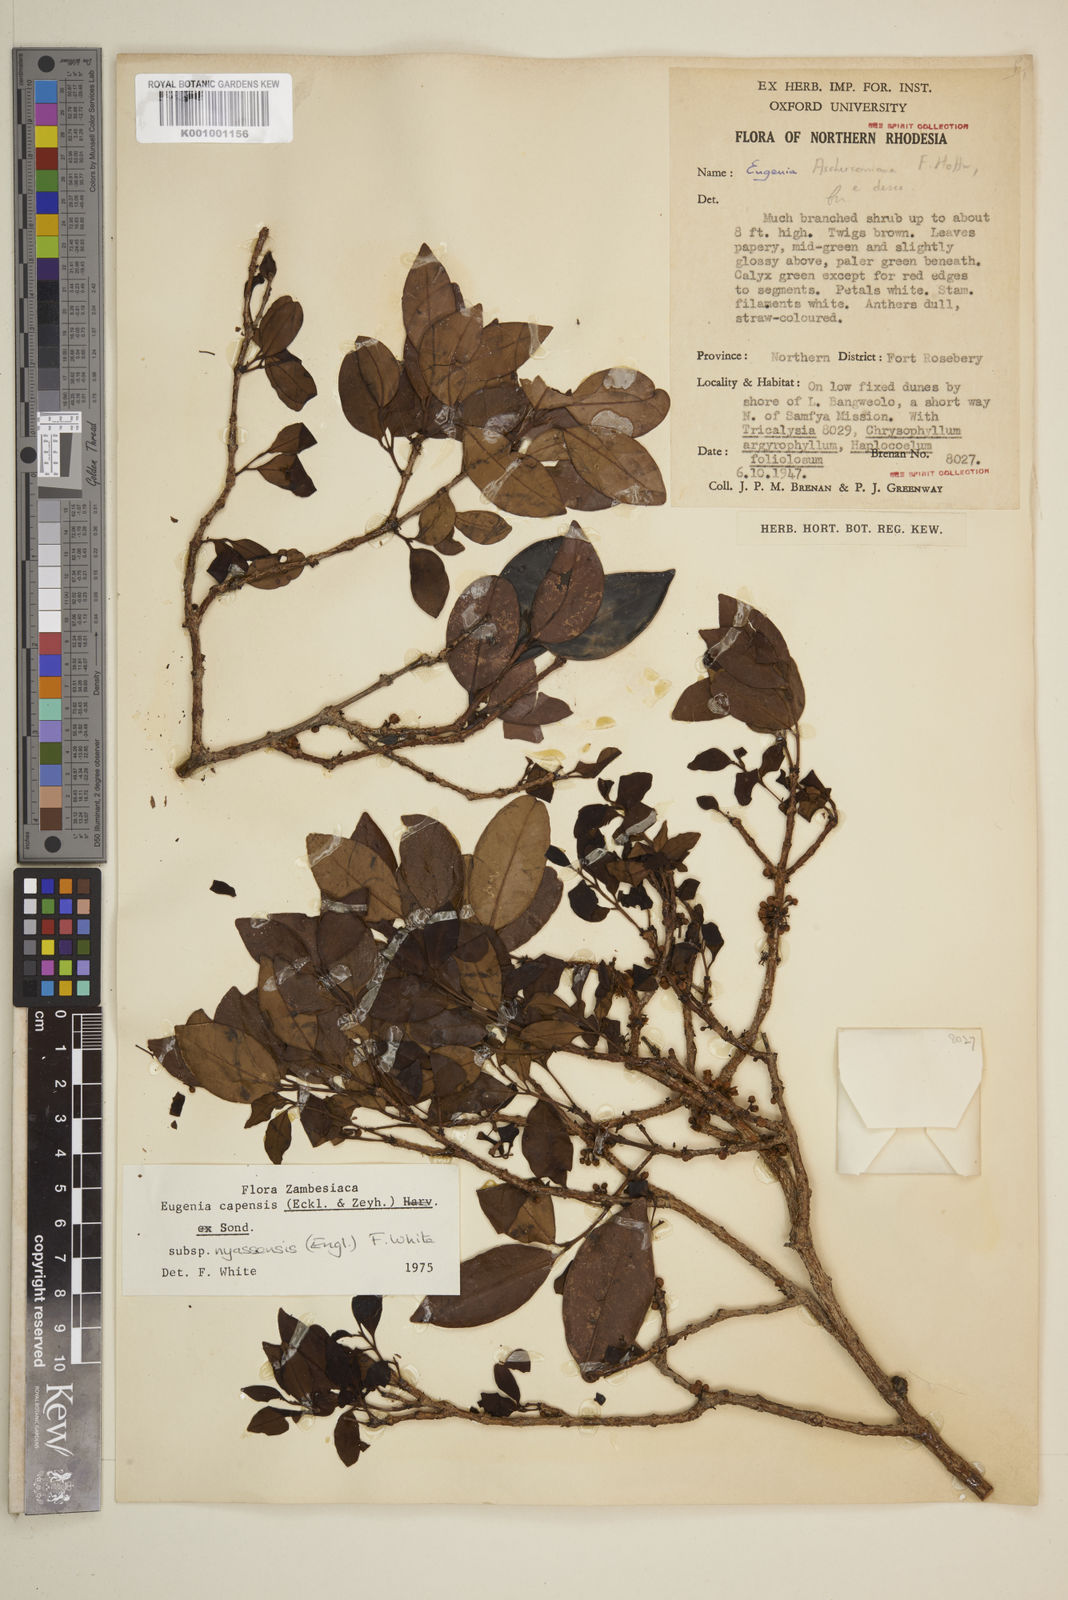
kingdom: Plantae
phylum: Tracheophyta
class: Magnoliopsida
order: Myrtales
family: Myrtaceae
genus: Eugenia
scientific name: Eugenia capensis
